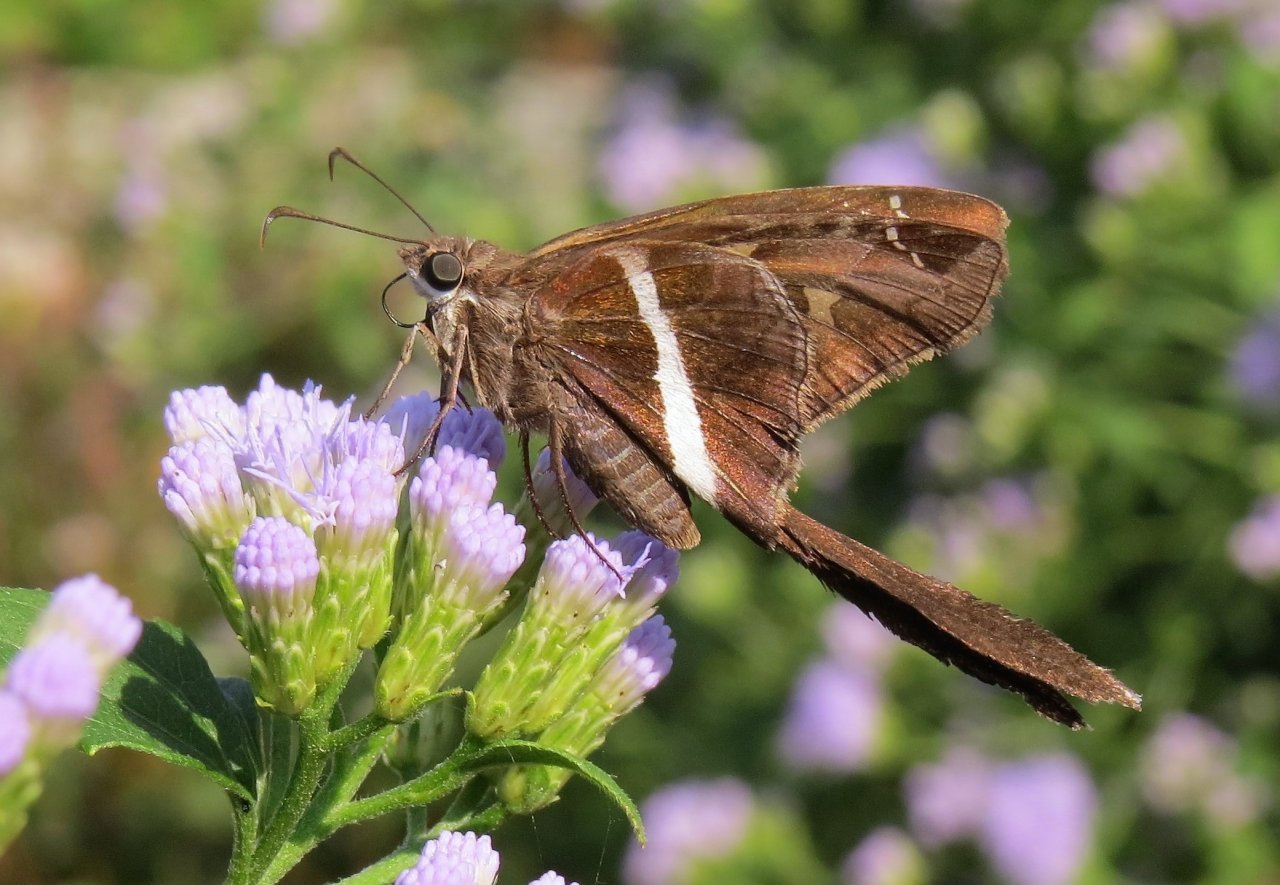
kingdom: Animalia
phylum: Arthropoda
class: Insecta
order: Lepidoptera
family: Hesperiidae
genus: Chioides
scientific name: Chioides catillus
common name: White-striped Longtail
